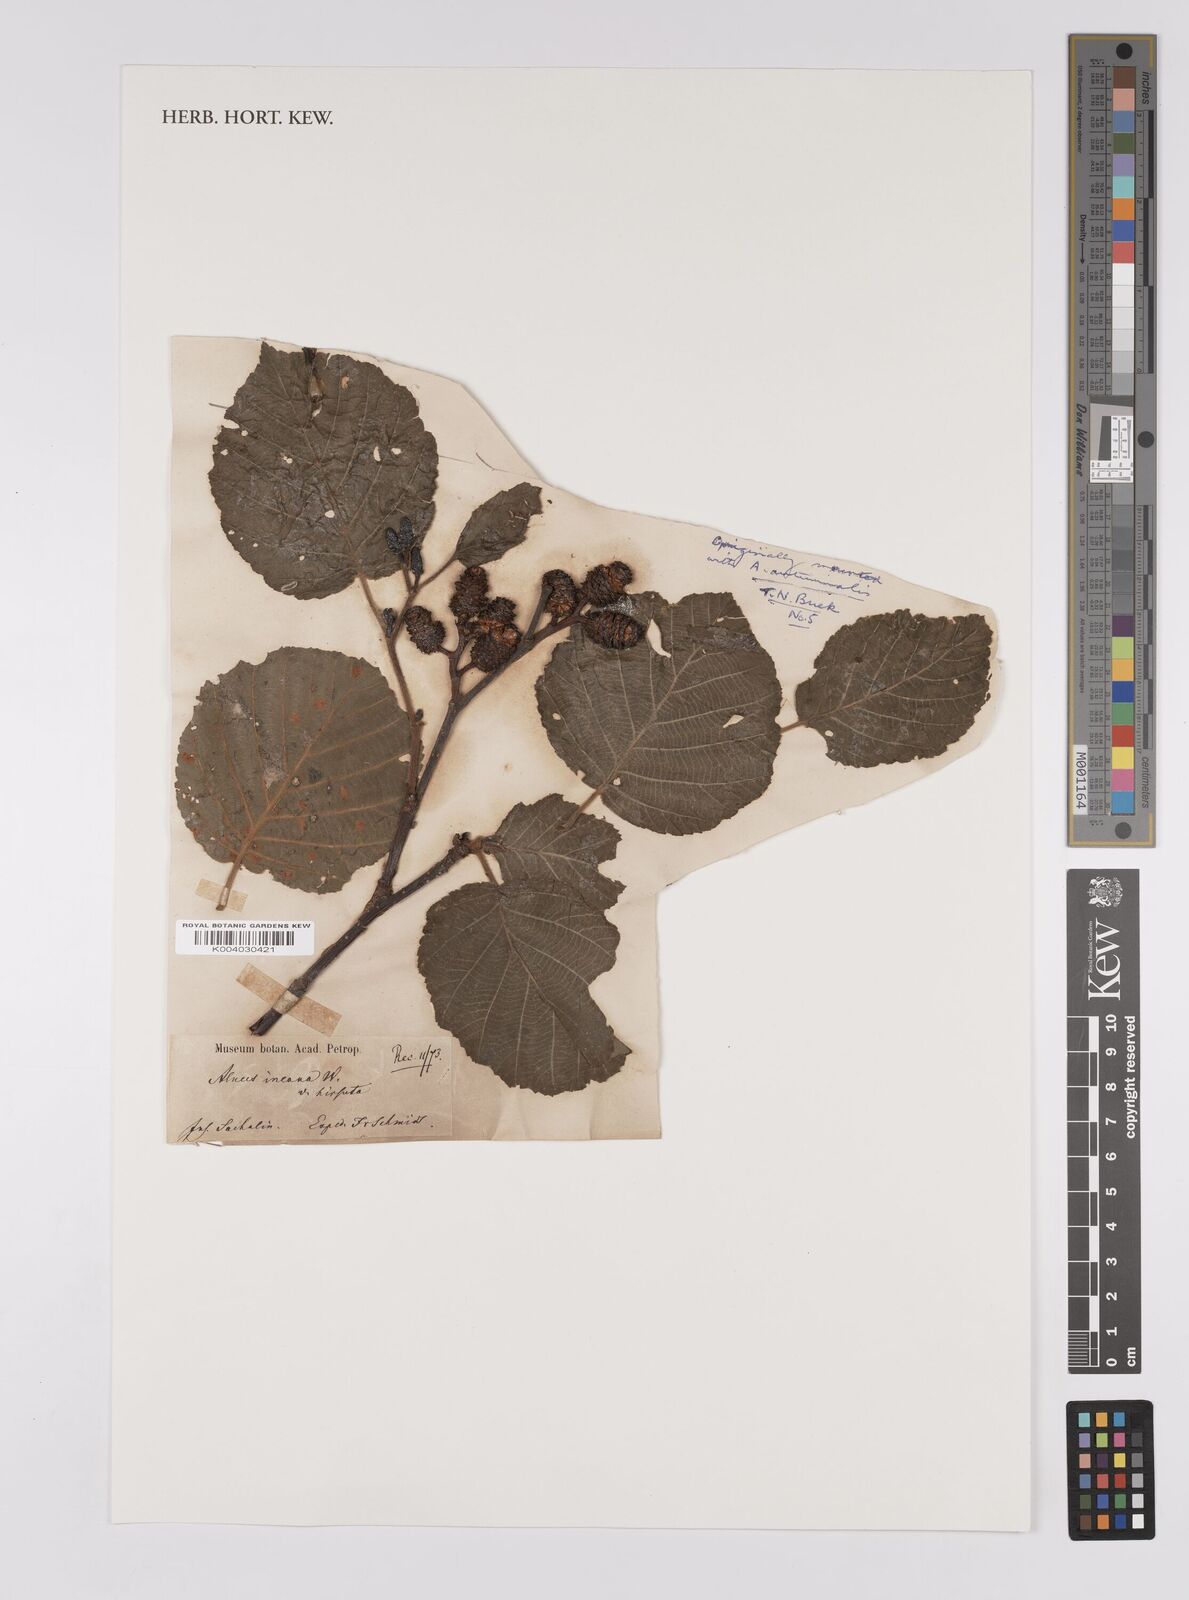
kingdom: Plantae
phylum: Tracheophyta
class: Magnoliopsida
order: Fagales
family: Betulaceae
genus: Alnus
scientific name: Alnus hirsuta
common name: Manchurian alder
